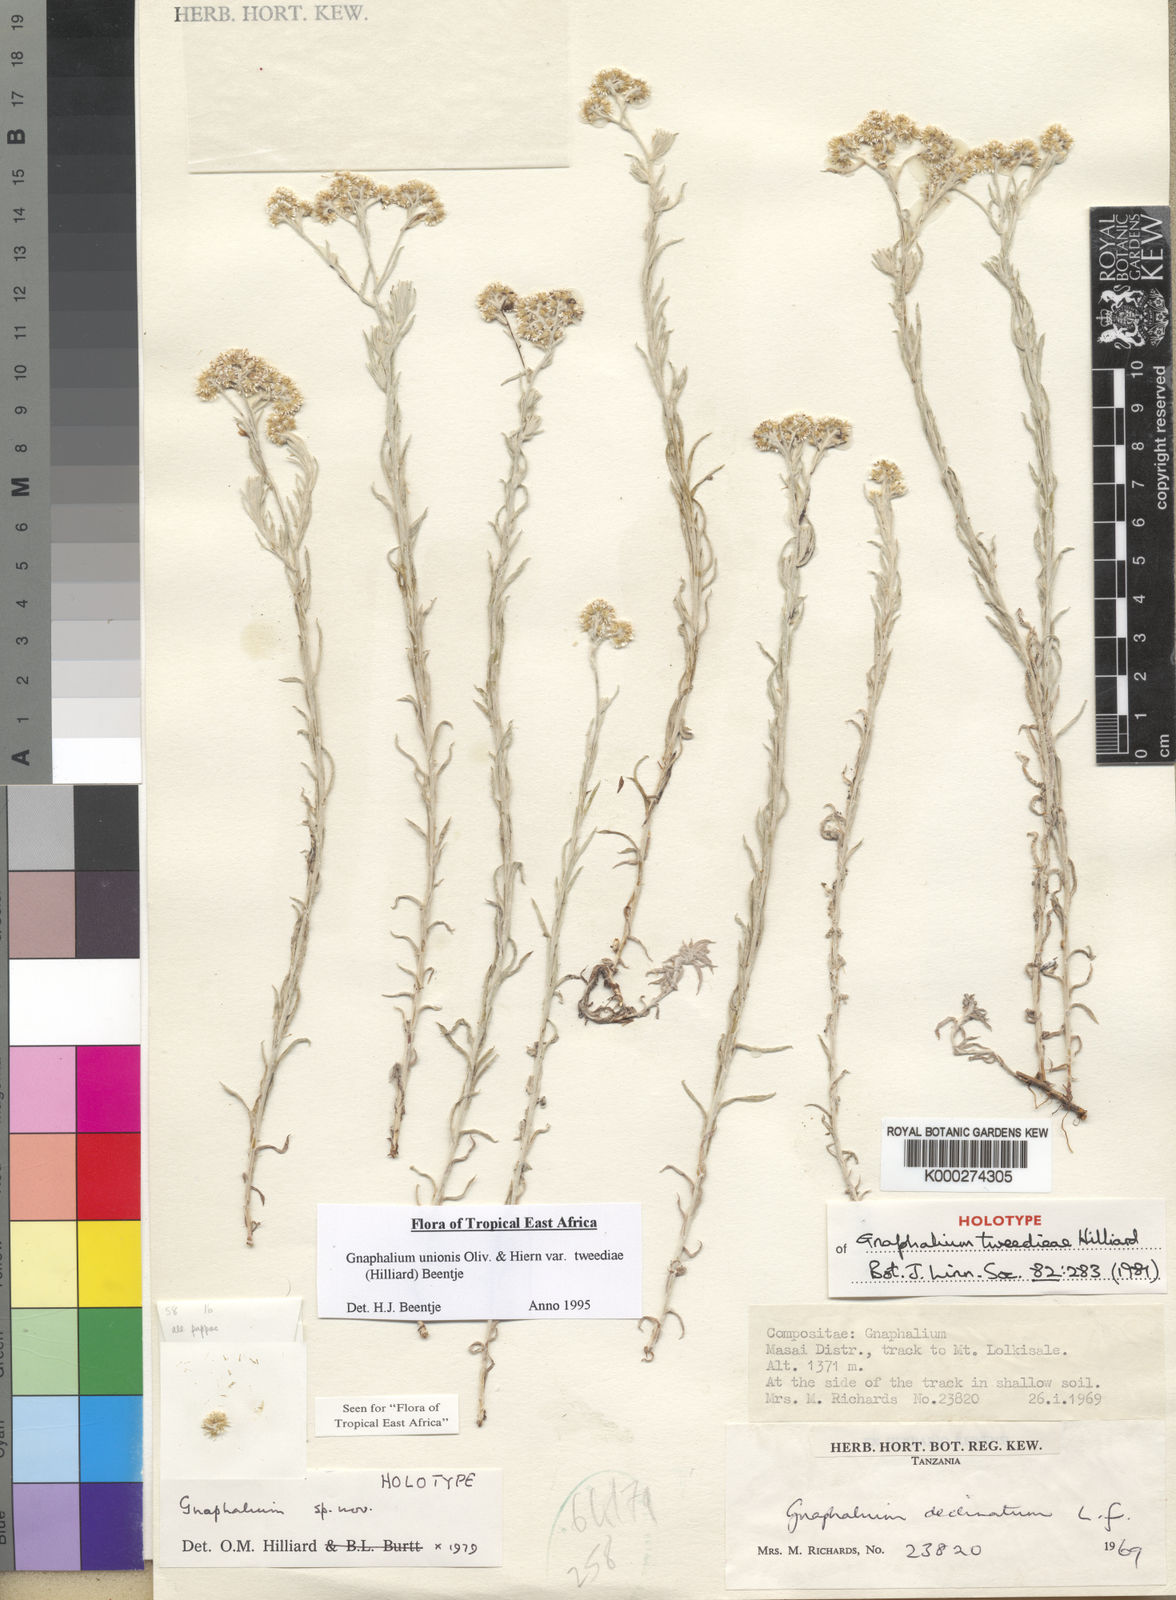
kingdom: Plantae
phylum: Tracheophyta
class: Magnoliopsida
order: Asterales
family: Asteraceae
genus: Gnaphalium
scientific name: Gnaphalium unionis
